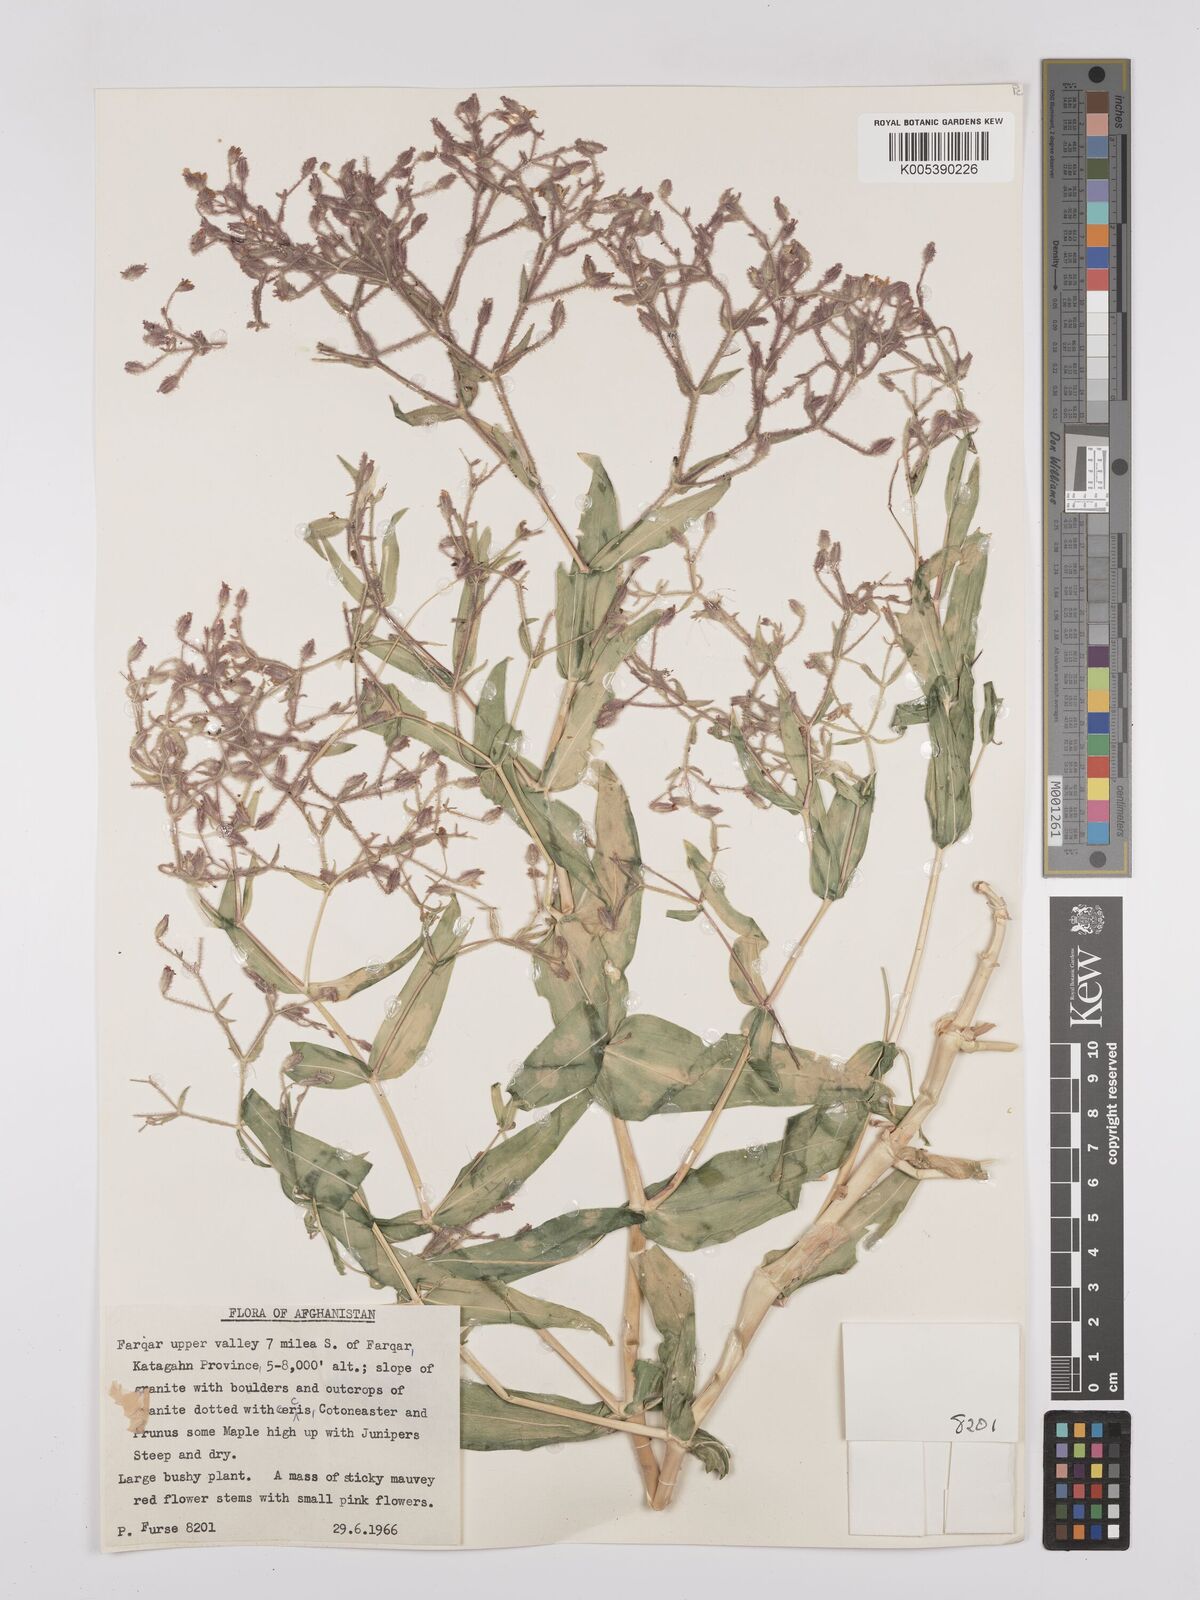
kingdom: Plantae
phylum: Tracheophyta
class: Magnoliopsida
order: Caryophyllales
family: Caryophyllaceae
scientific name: Caryophyllaceae
